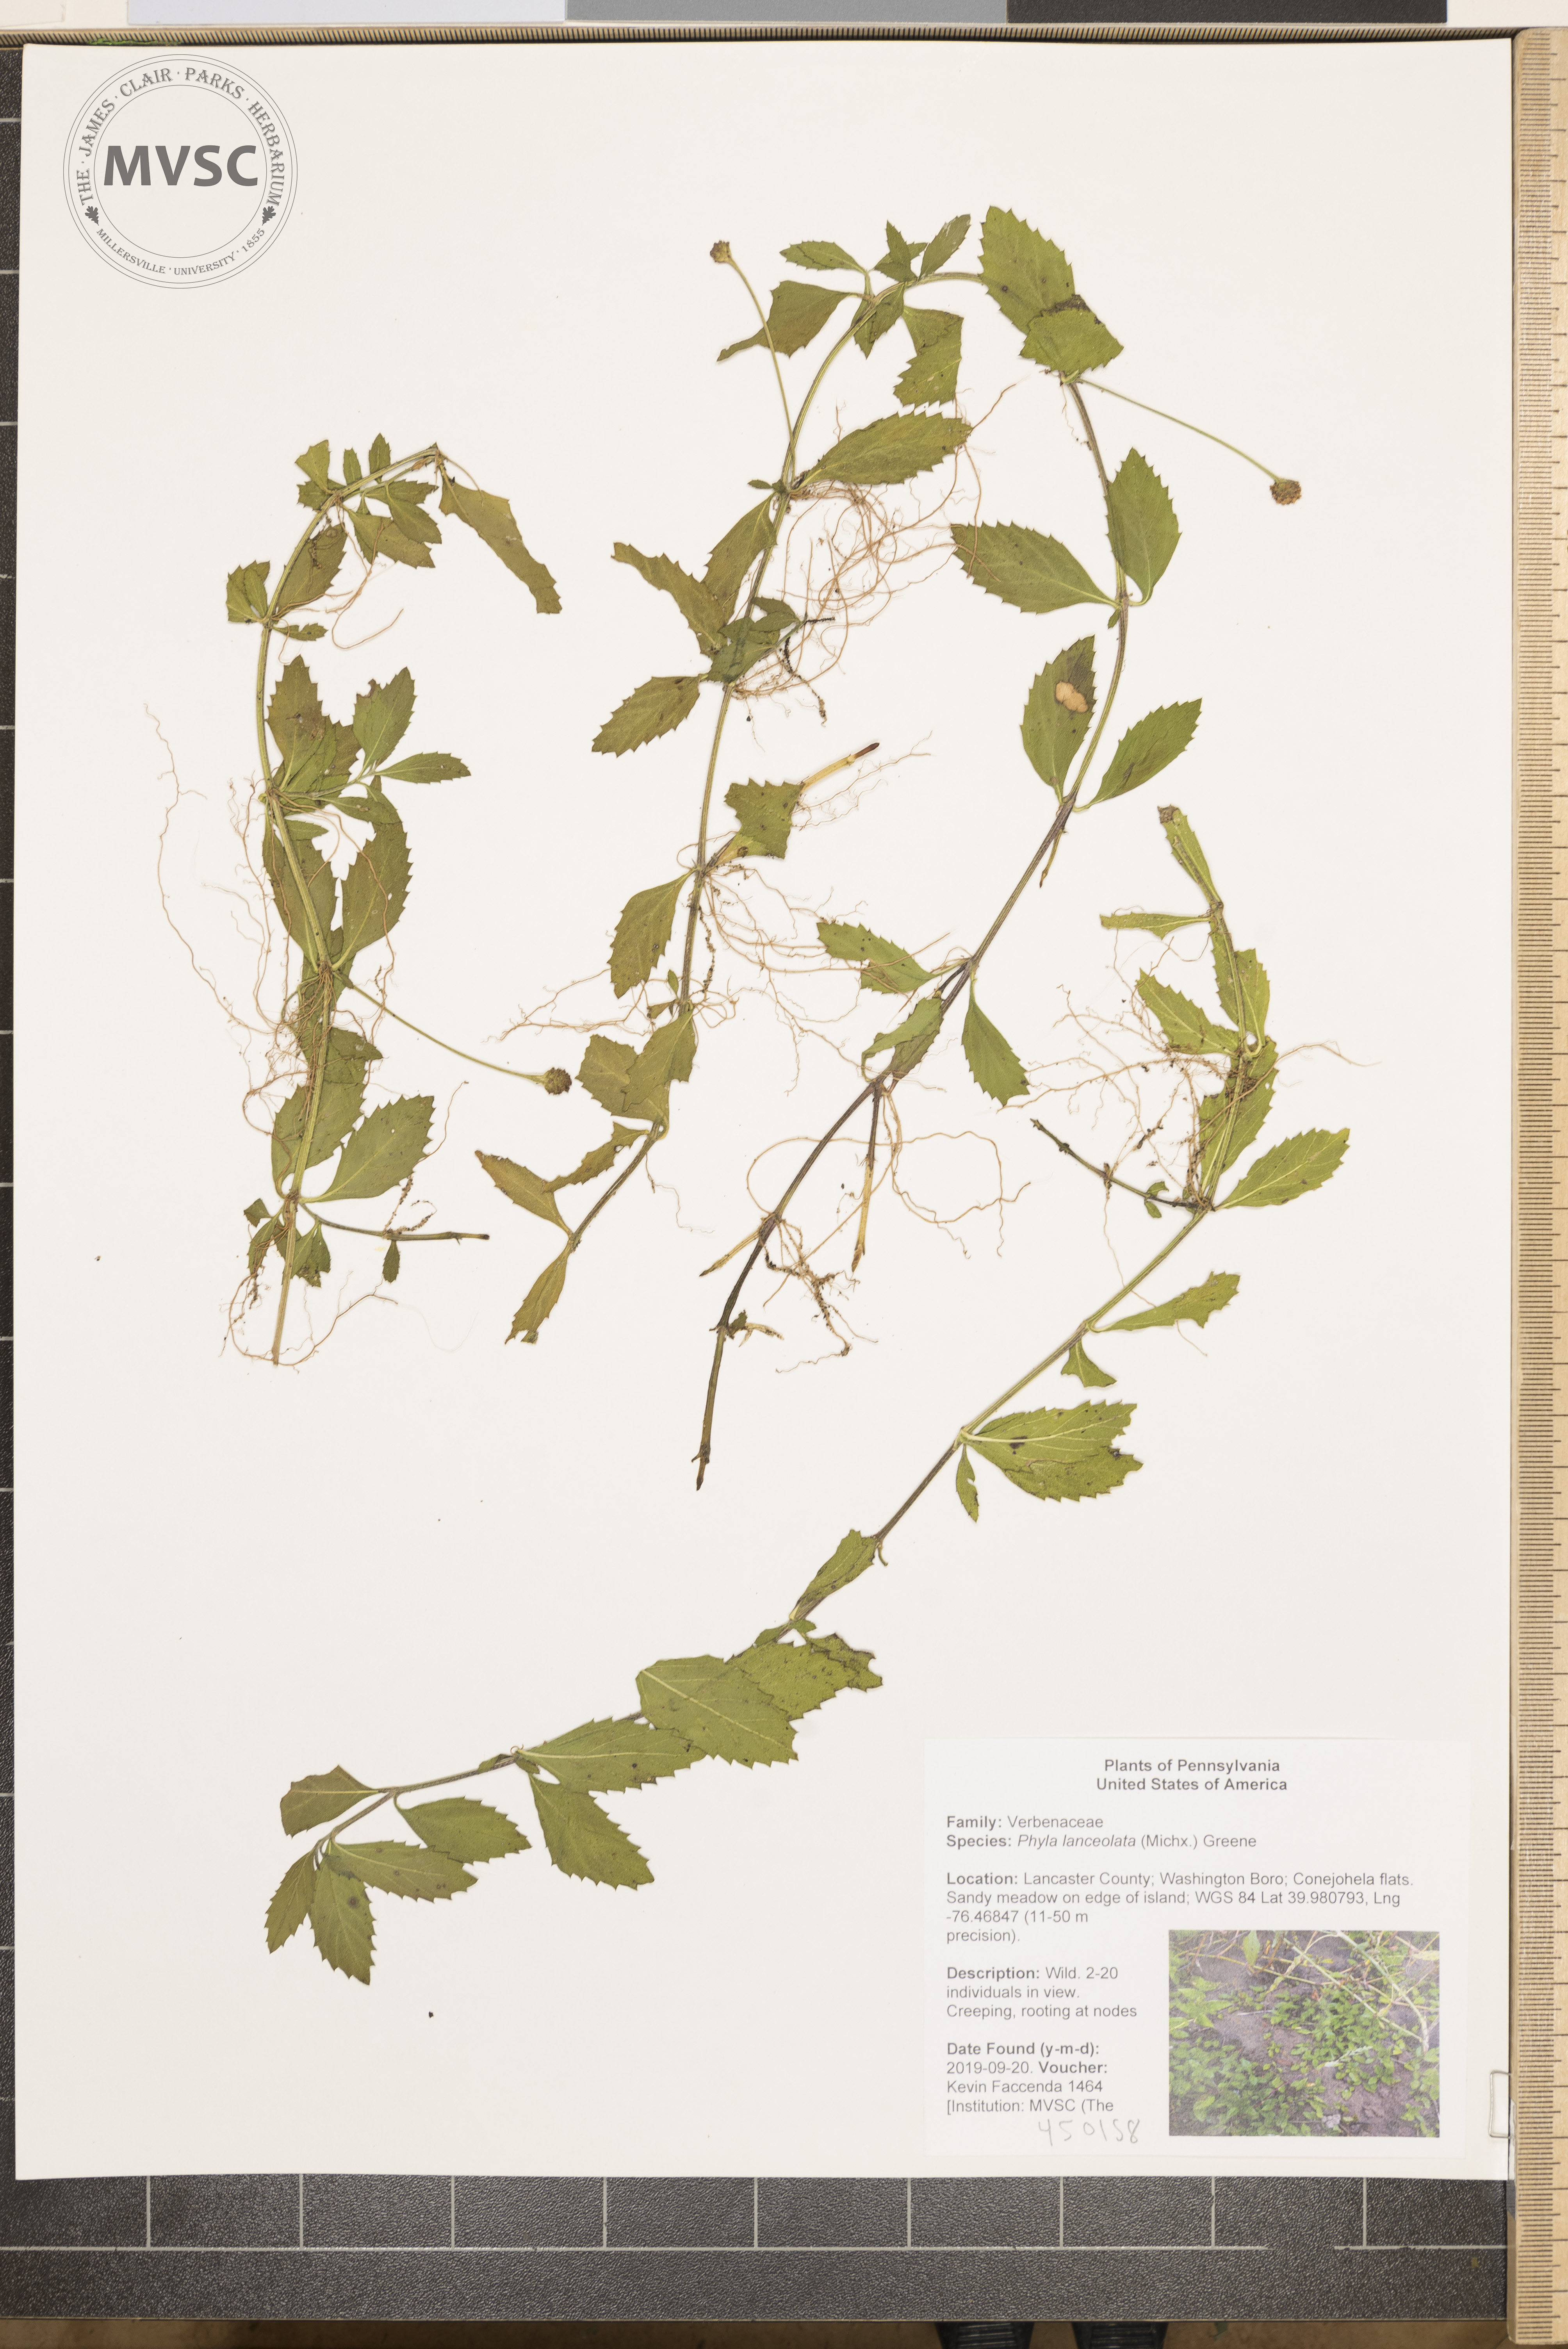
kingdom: Plantae
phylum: Tracheophyta
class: Magnoliopsida
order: Lamiales
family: Verbenaceae
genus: Phyla
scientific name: Phyla lanceolata
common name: Northern fogfruit
